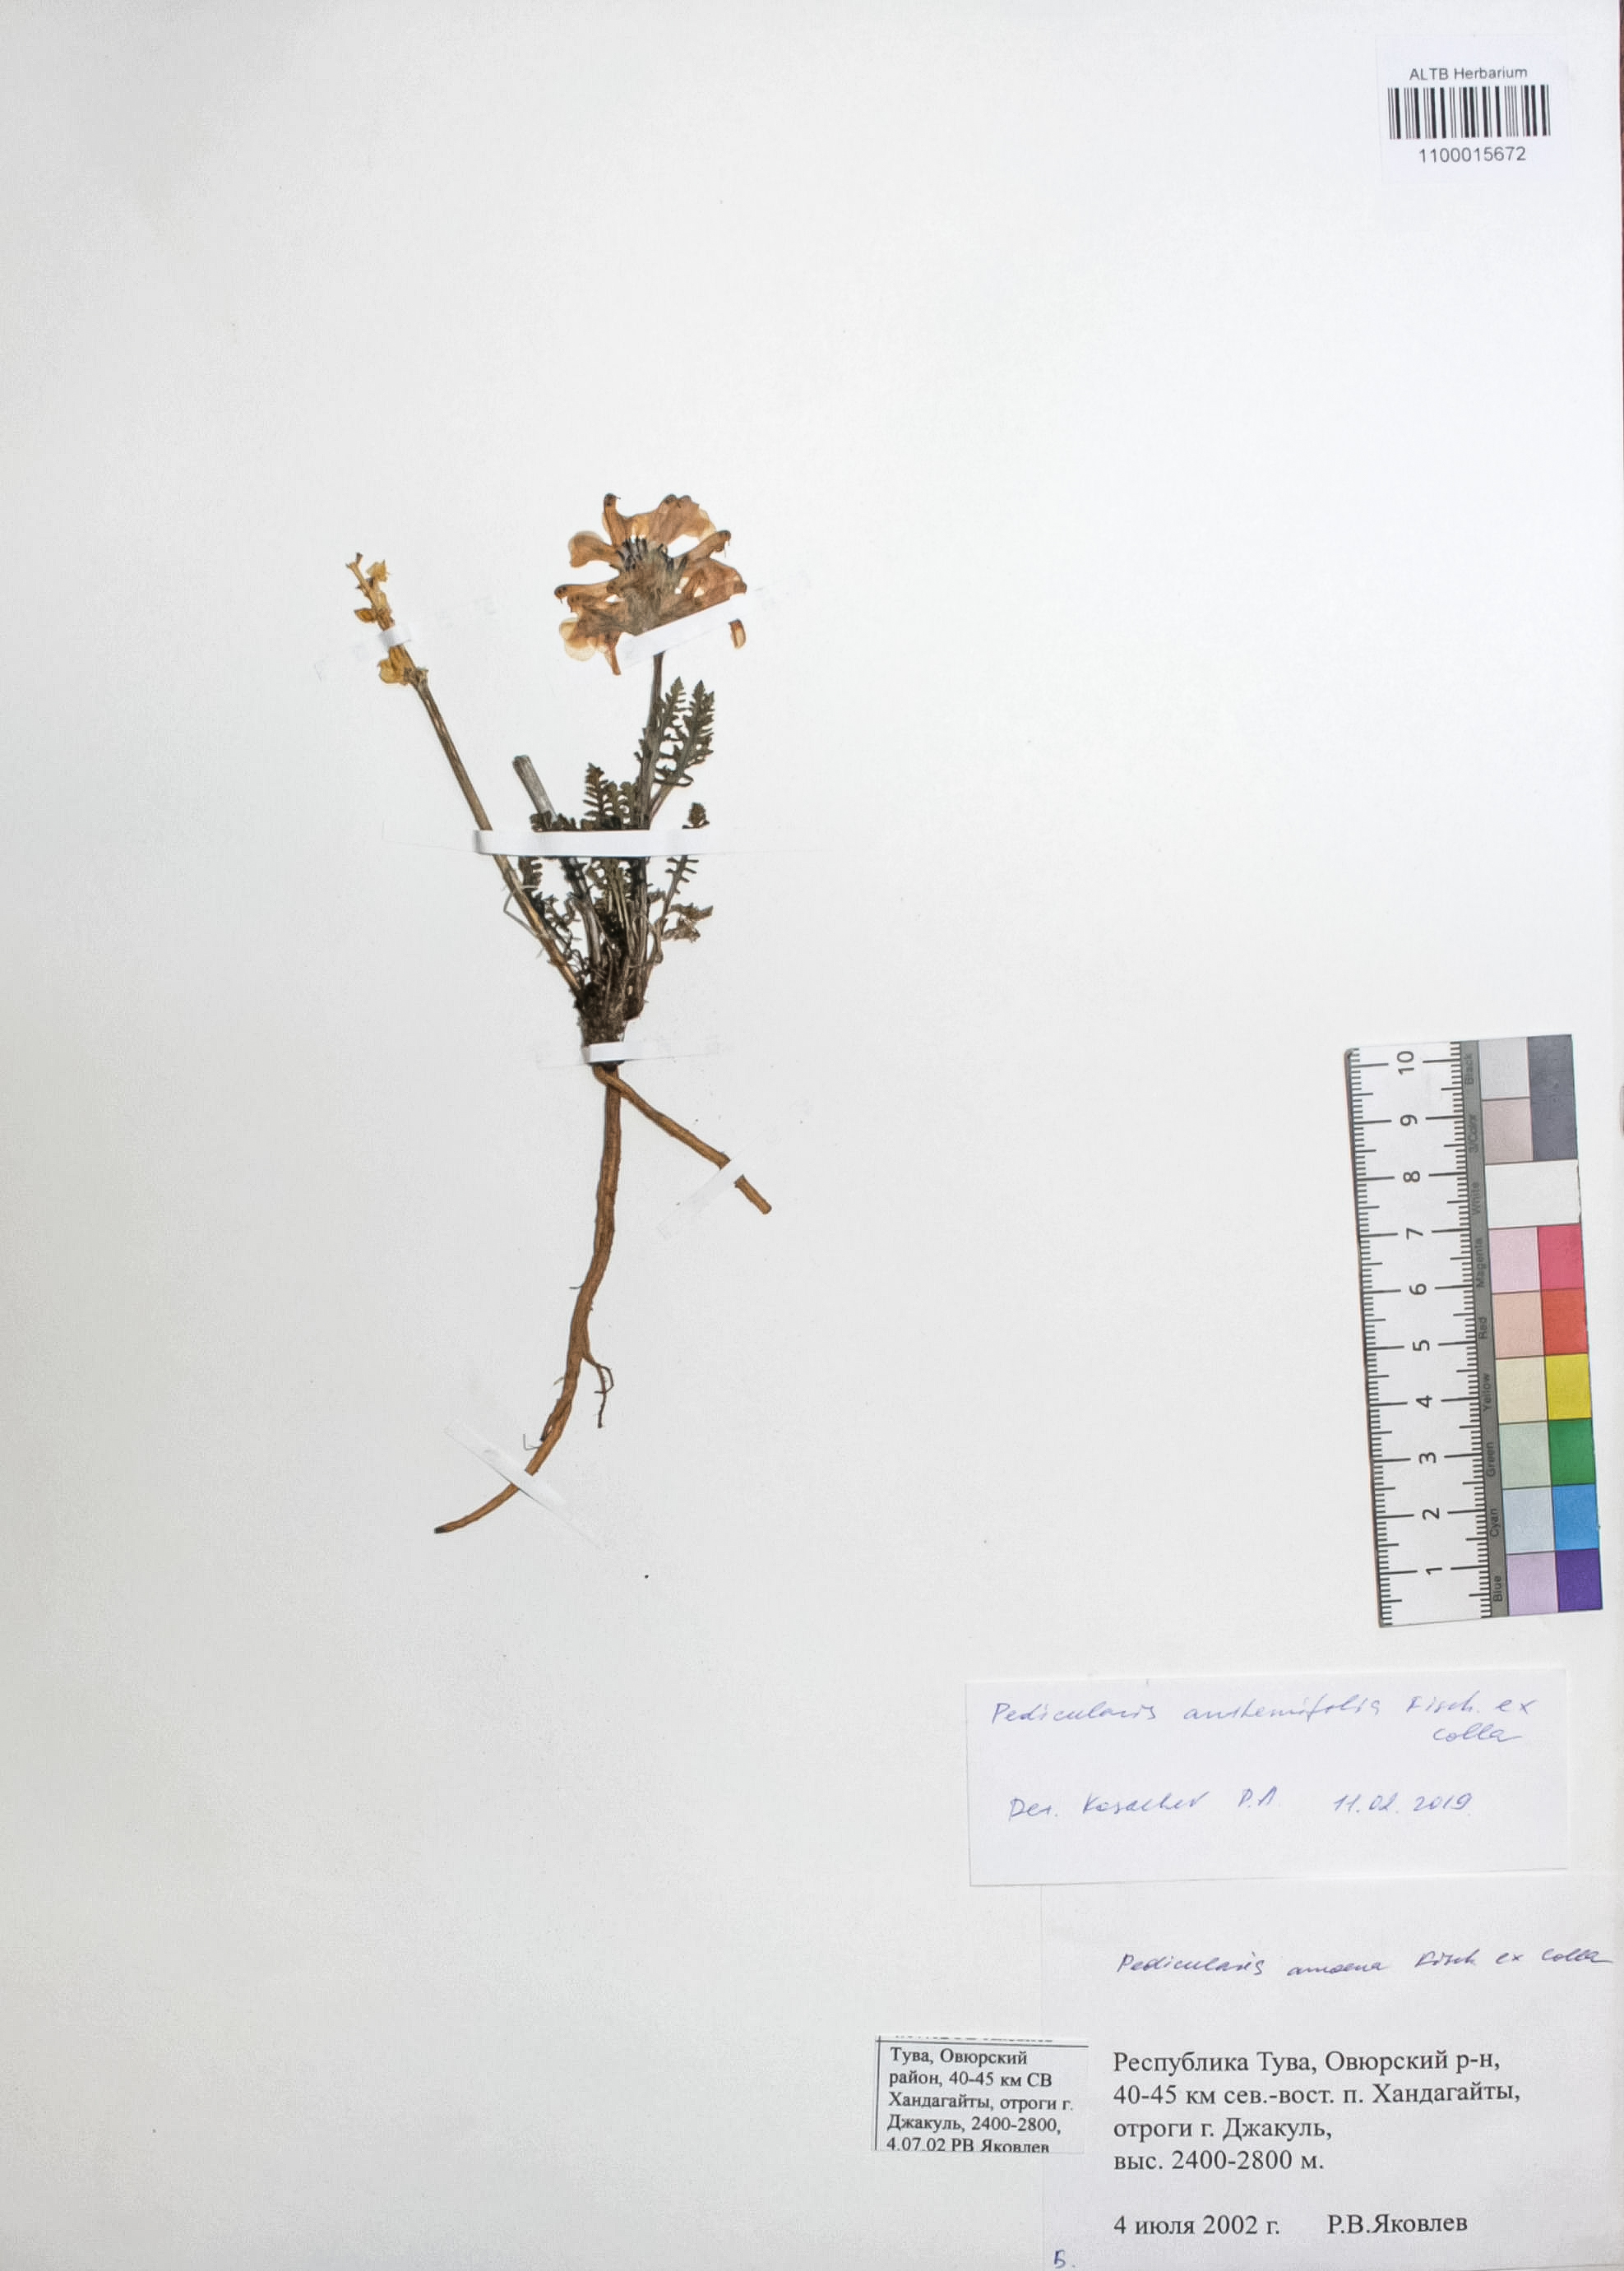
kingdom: Plantae
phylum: Tracheophyta
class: Magnoliopsida
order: Lamiales
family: Orobanchaceae
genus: Pedicularis
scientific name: Pedicularis anthemifolia
